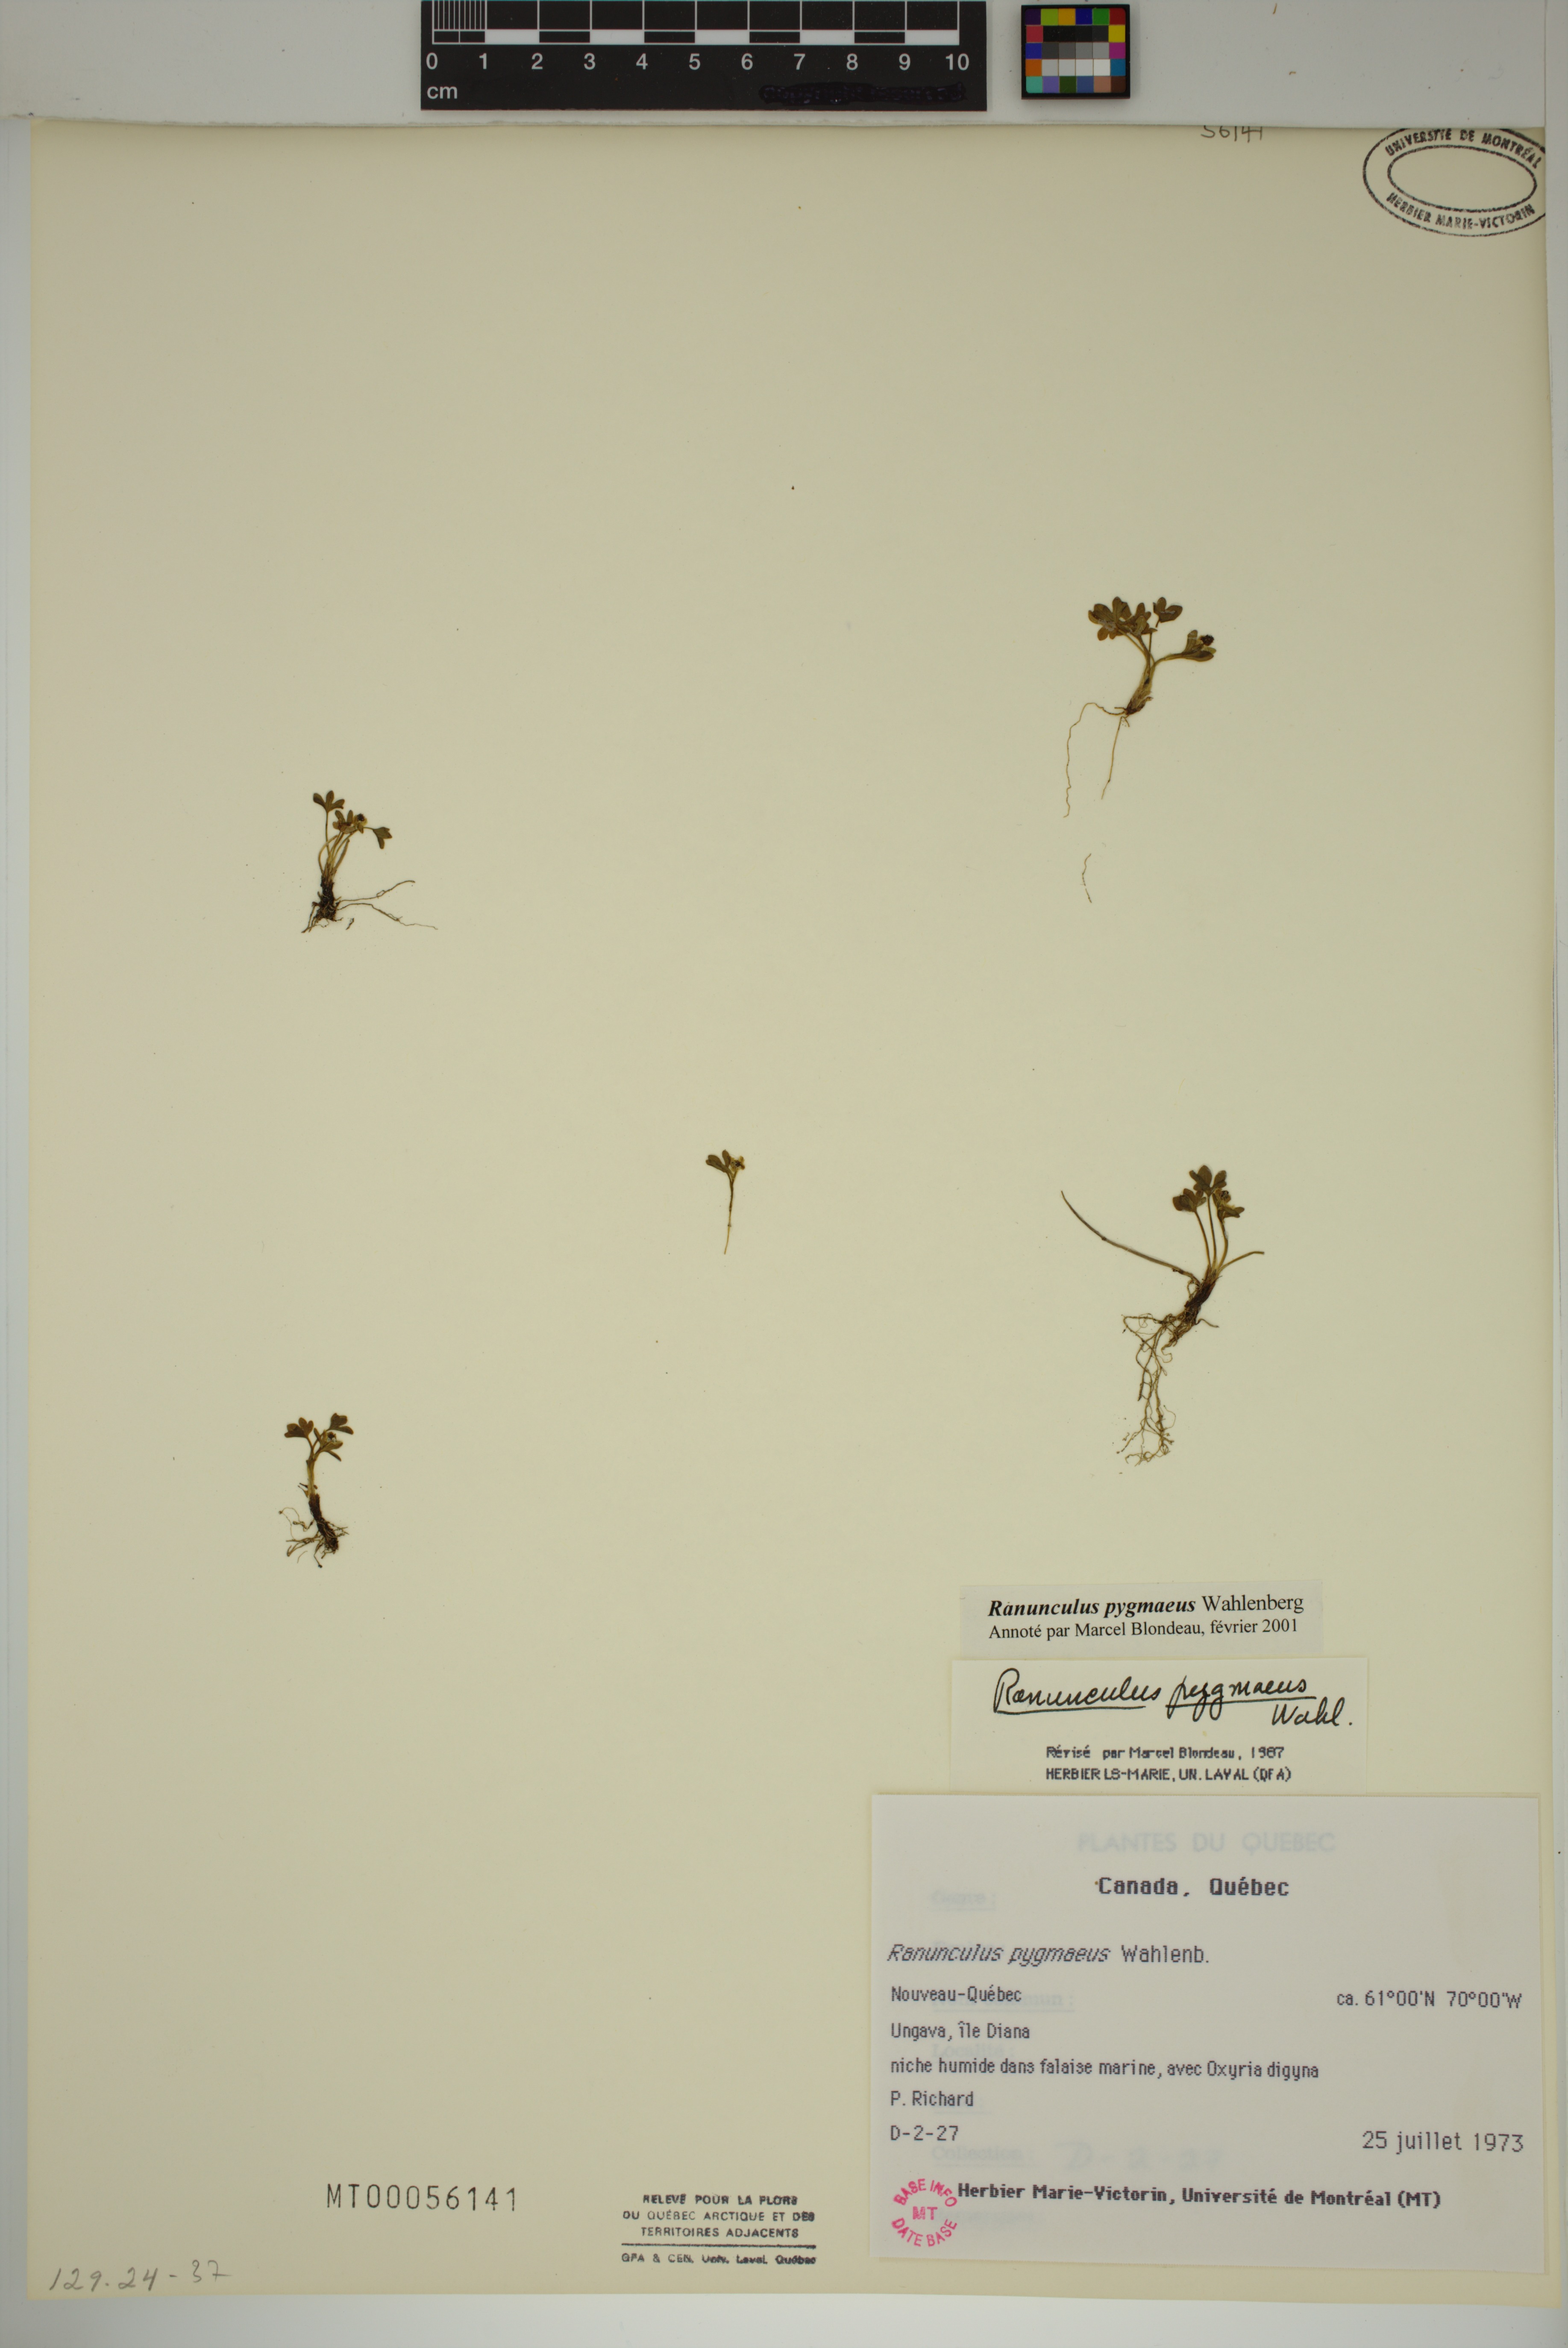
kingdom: Plantae
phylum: Tracheophyta
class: Magnoliopsida
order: Ranunculales
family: Ranunculaceae
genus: Ranunculus
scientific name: Ranunculus pygmaeus
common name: Dwarf buttercup
